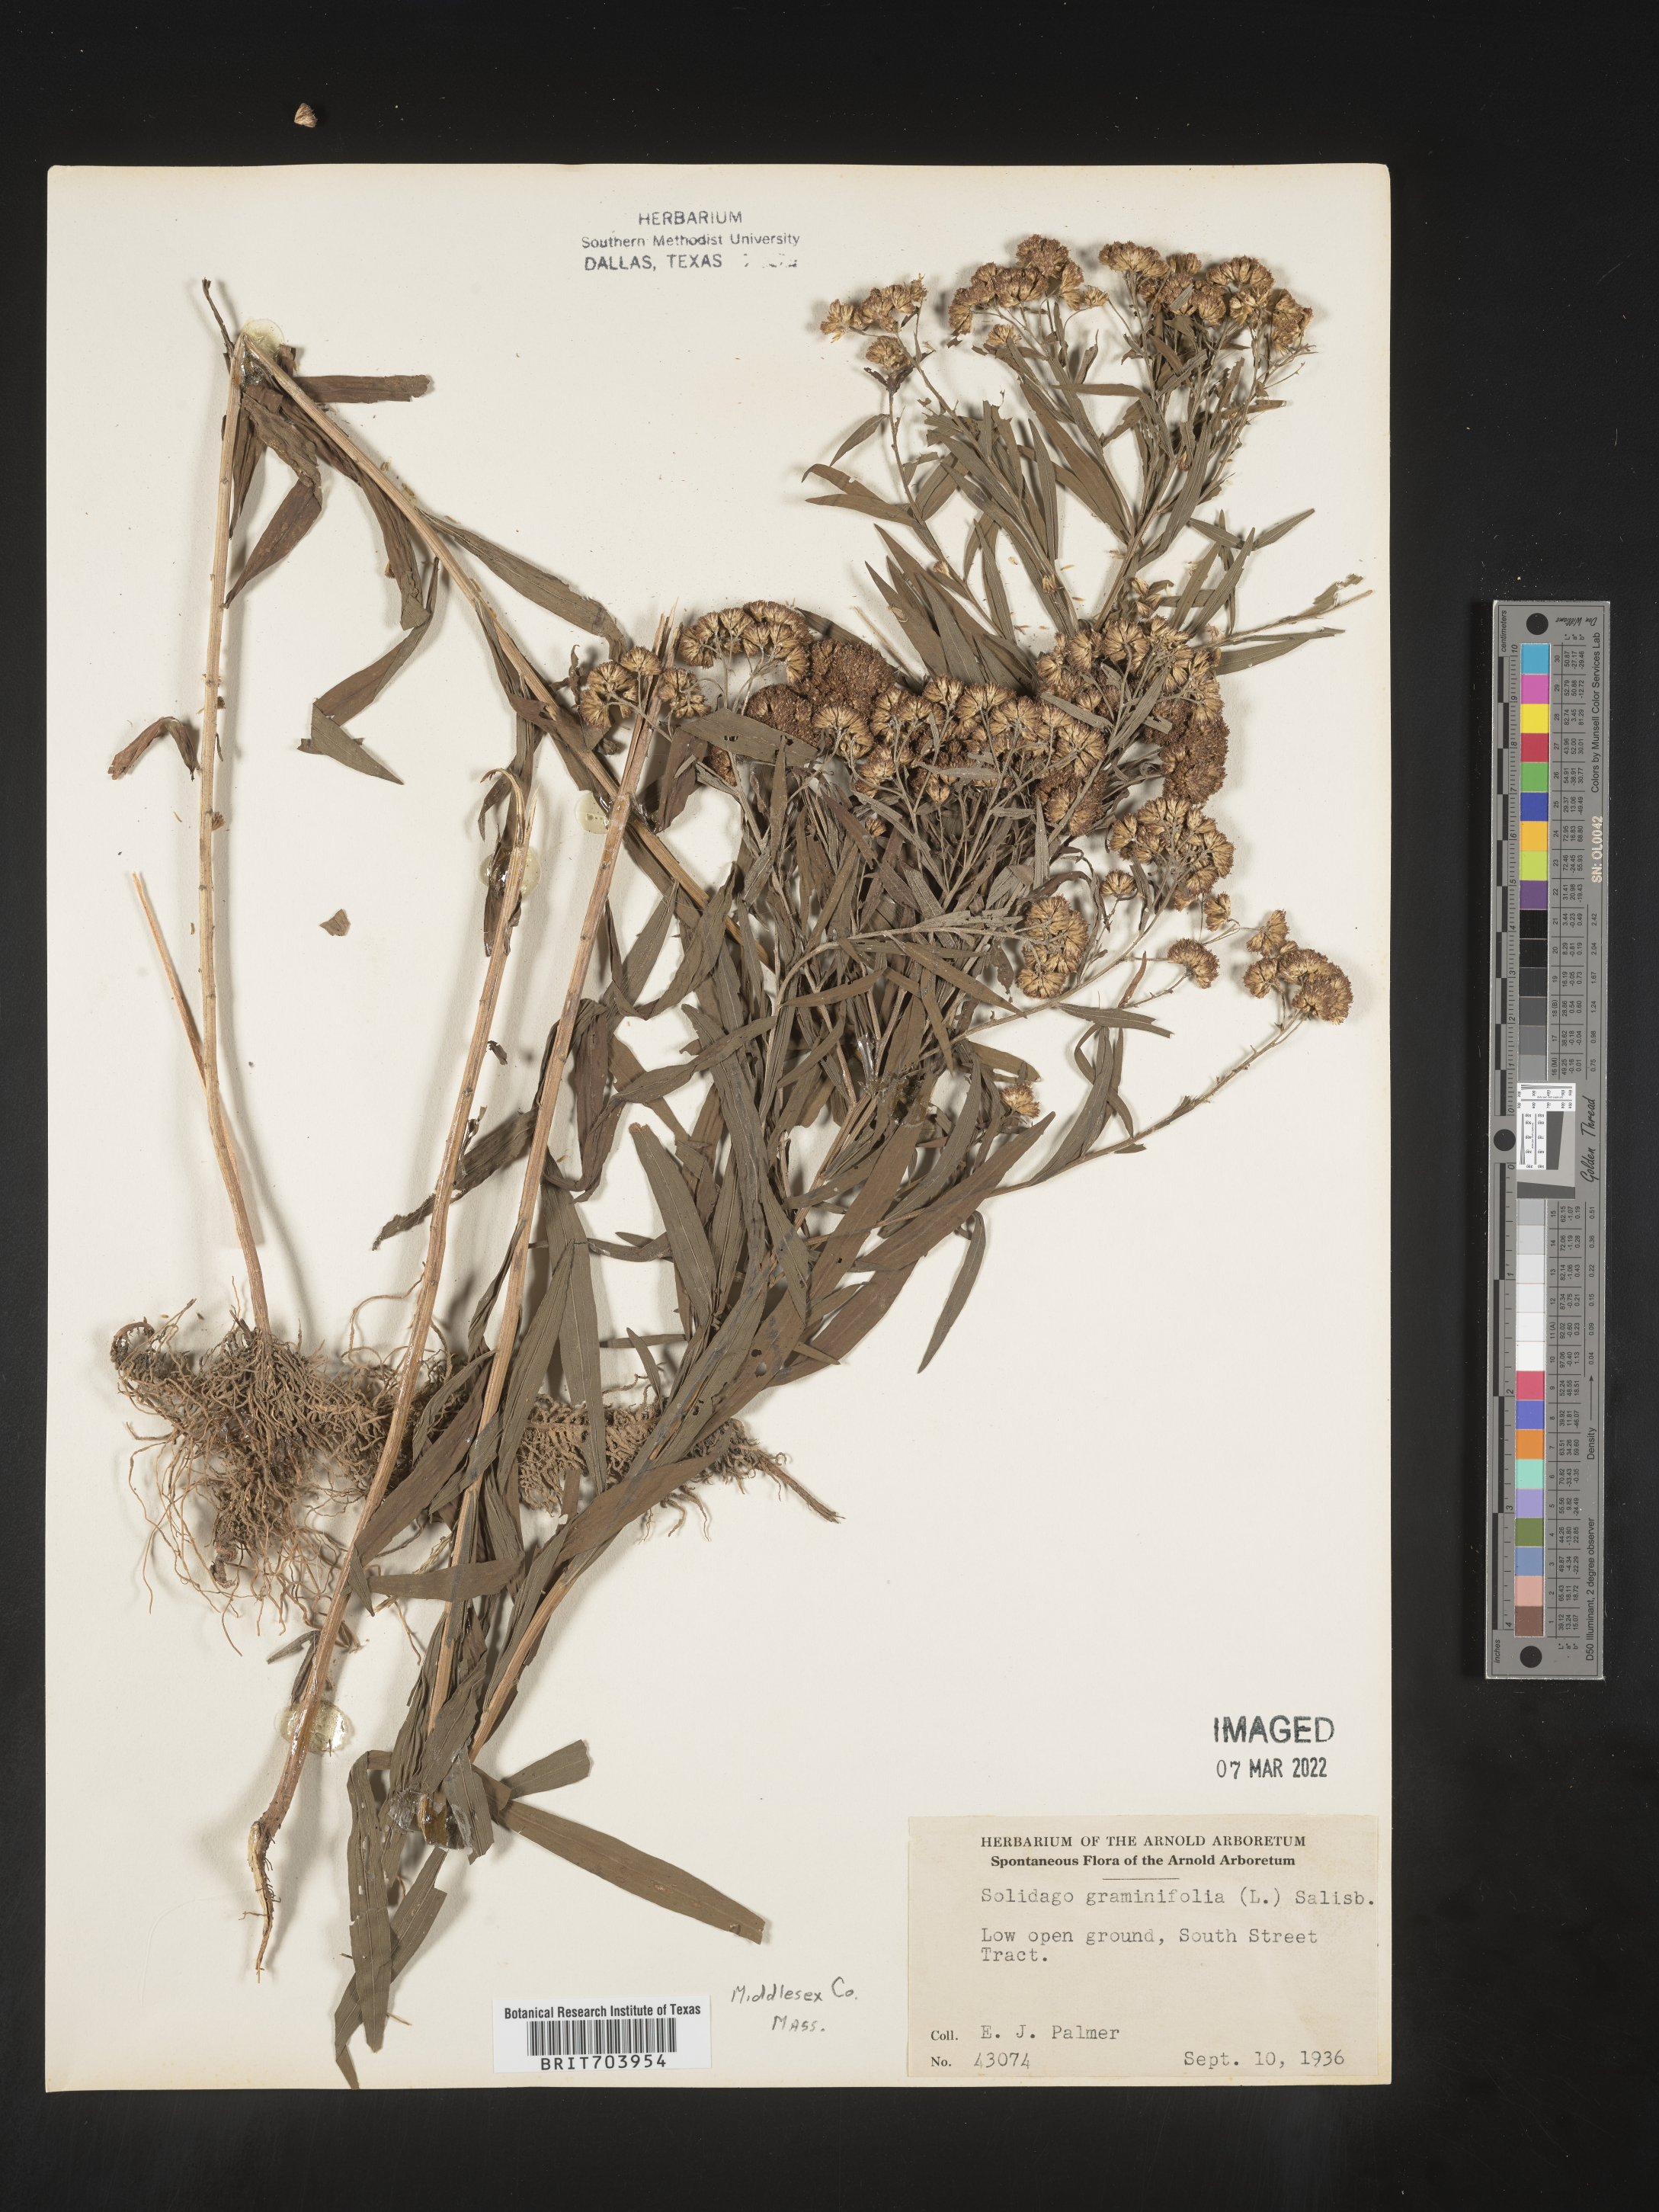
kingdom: Plantae
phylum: Tracheophyta
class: Magnoliopsida
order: Asterales
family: Asteraceae
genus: Euthamia
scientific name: Euthamia graminifolia
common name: Common goldentop
